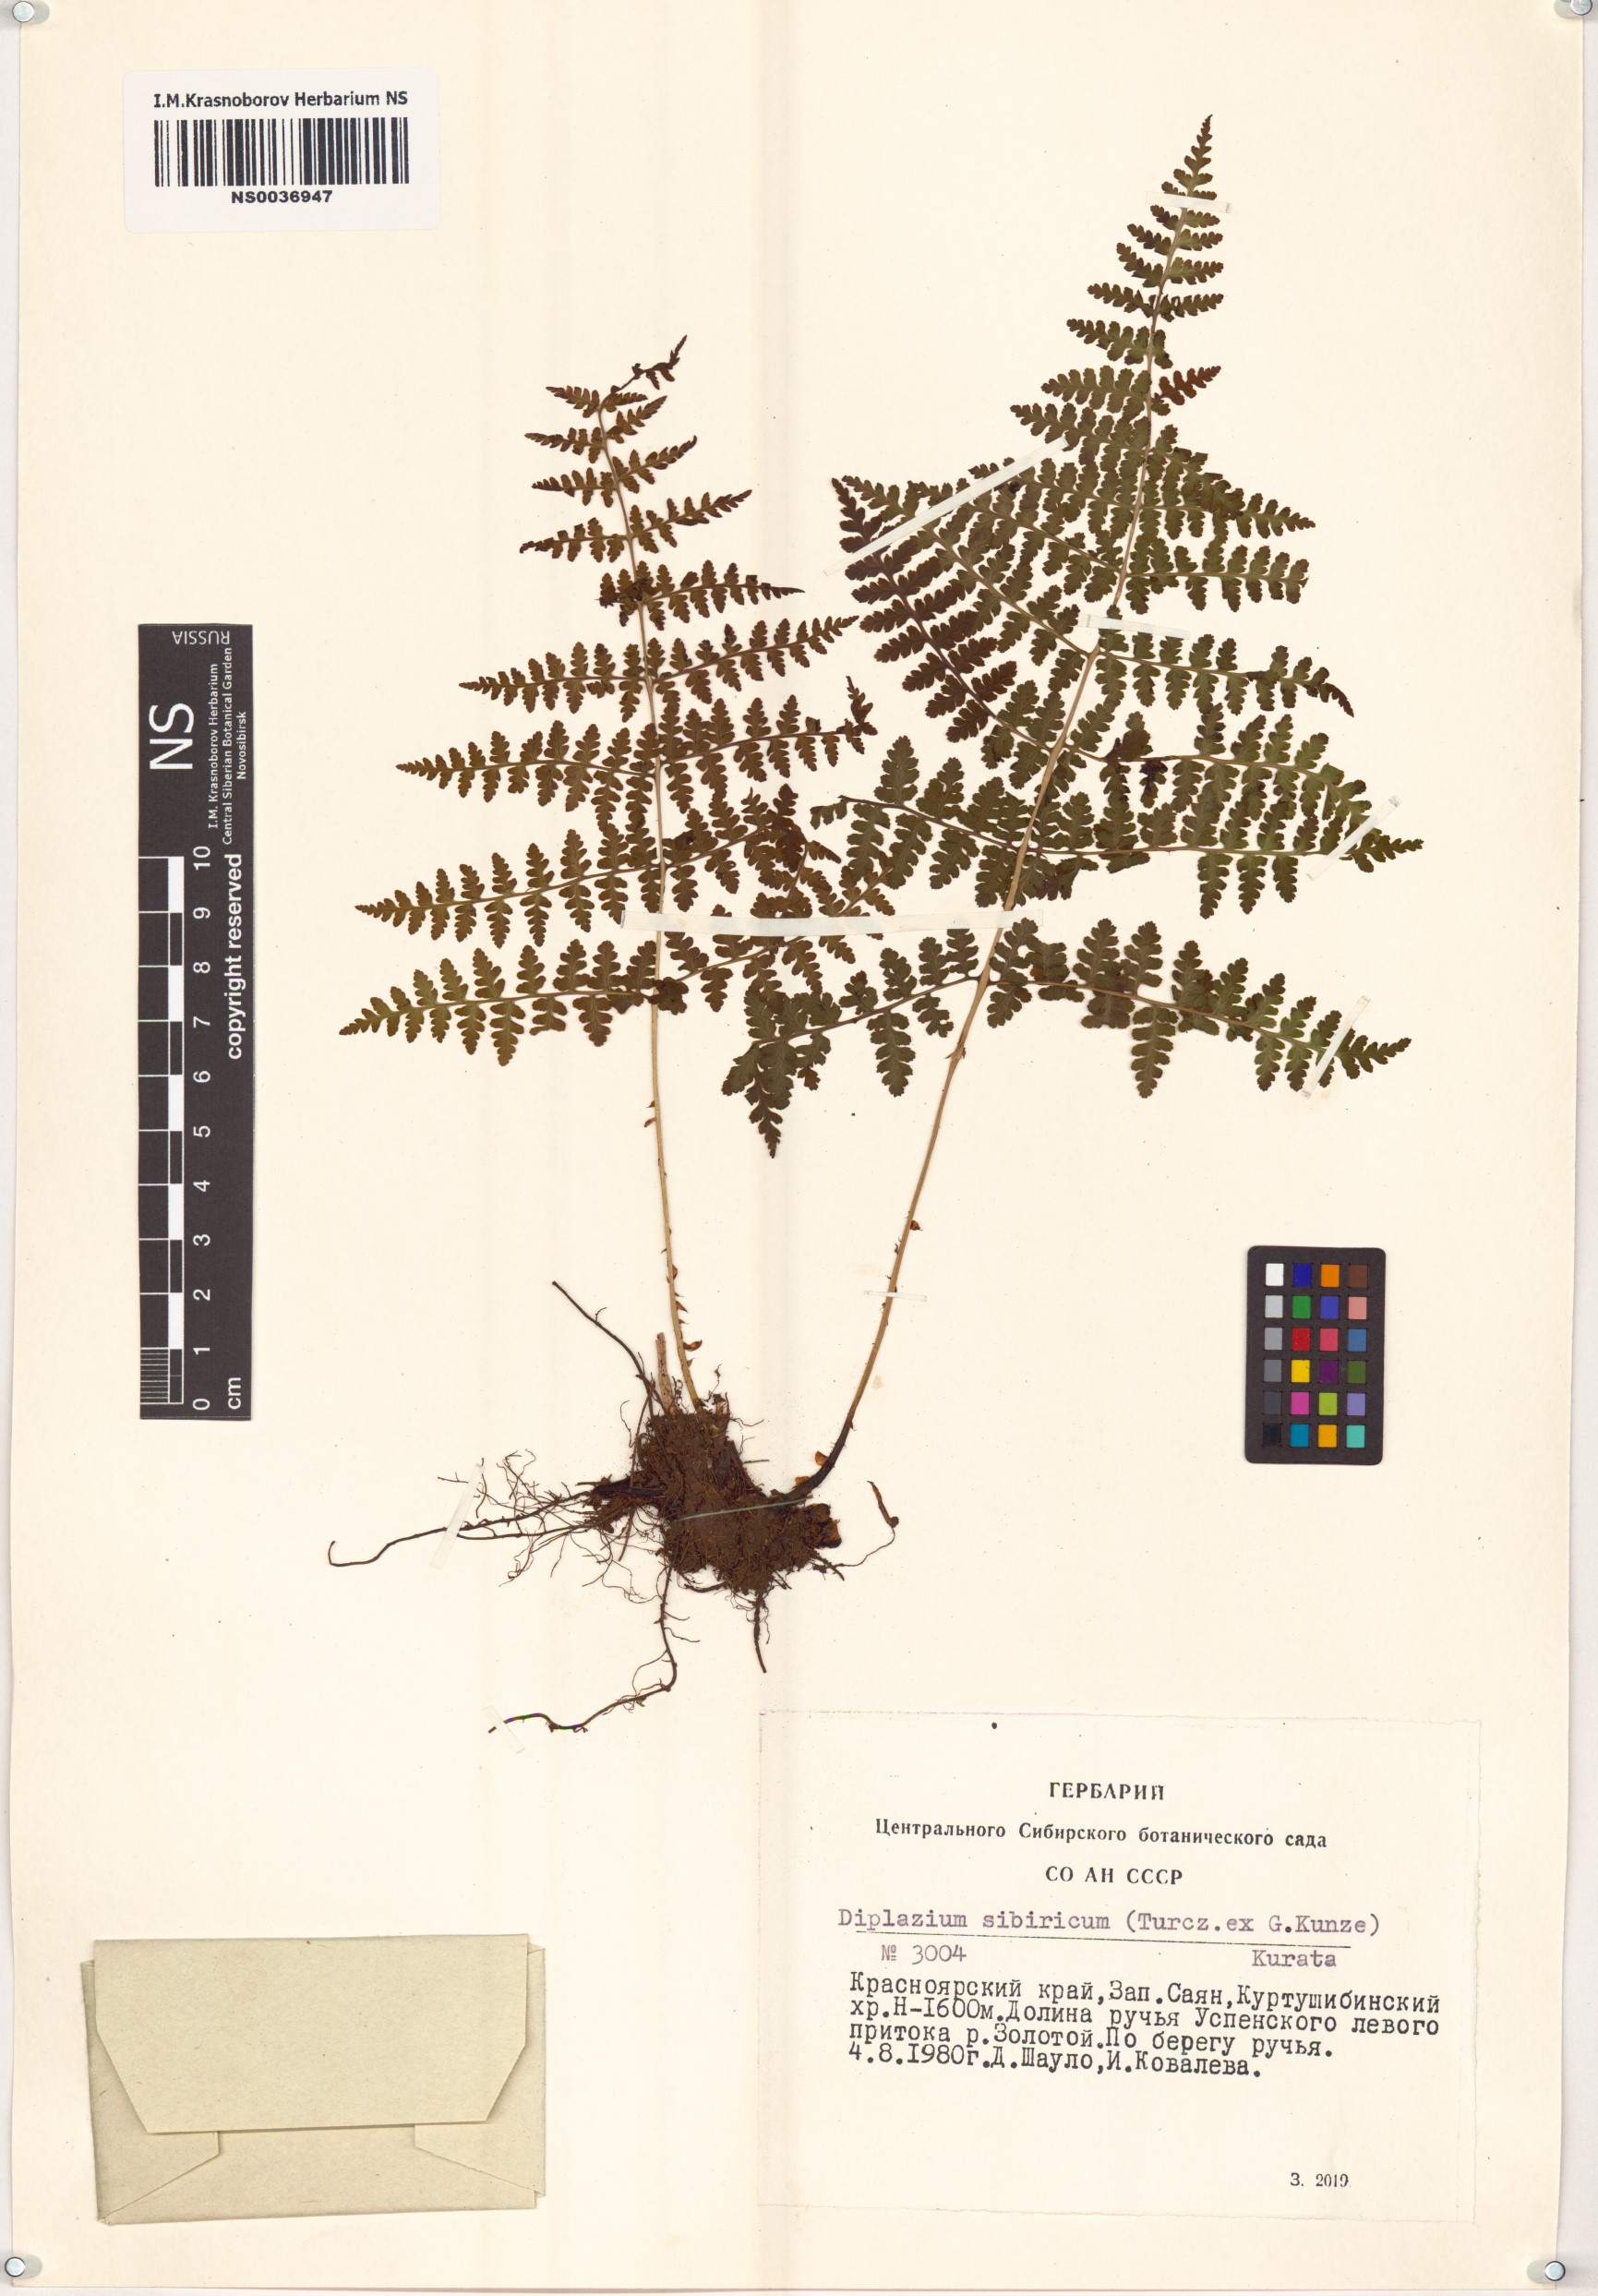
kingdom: Plantae
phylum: Tracheophyta
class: Polypodiopsida
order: Polypodiales
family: Athyriaceae
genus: Diplazium
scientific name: Diplazium sibiricum
